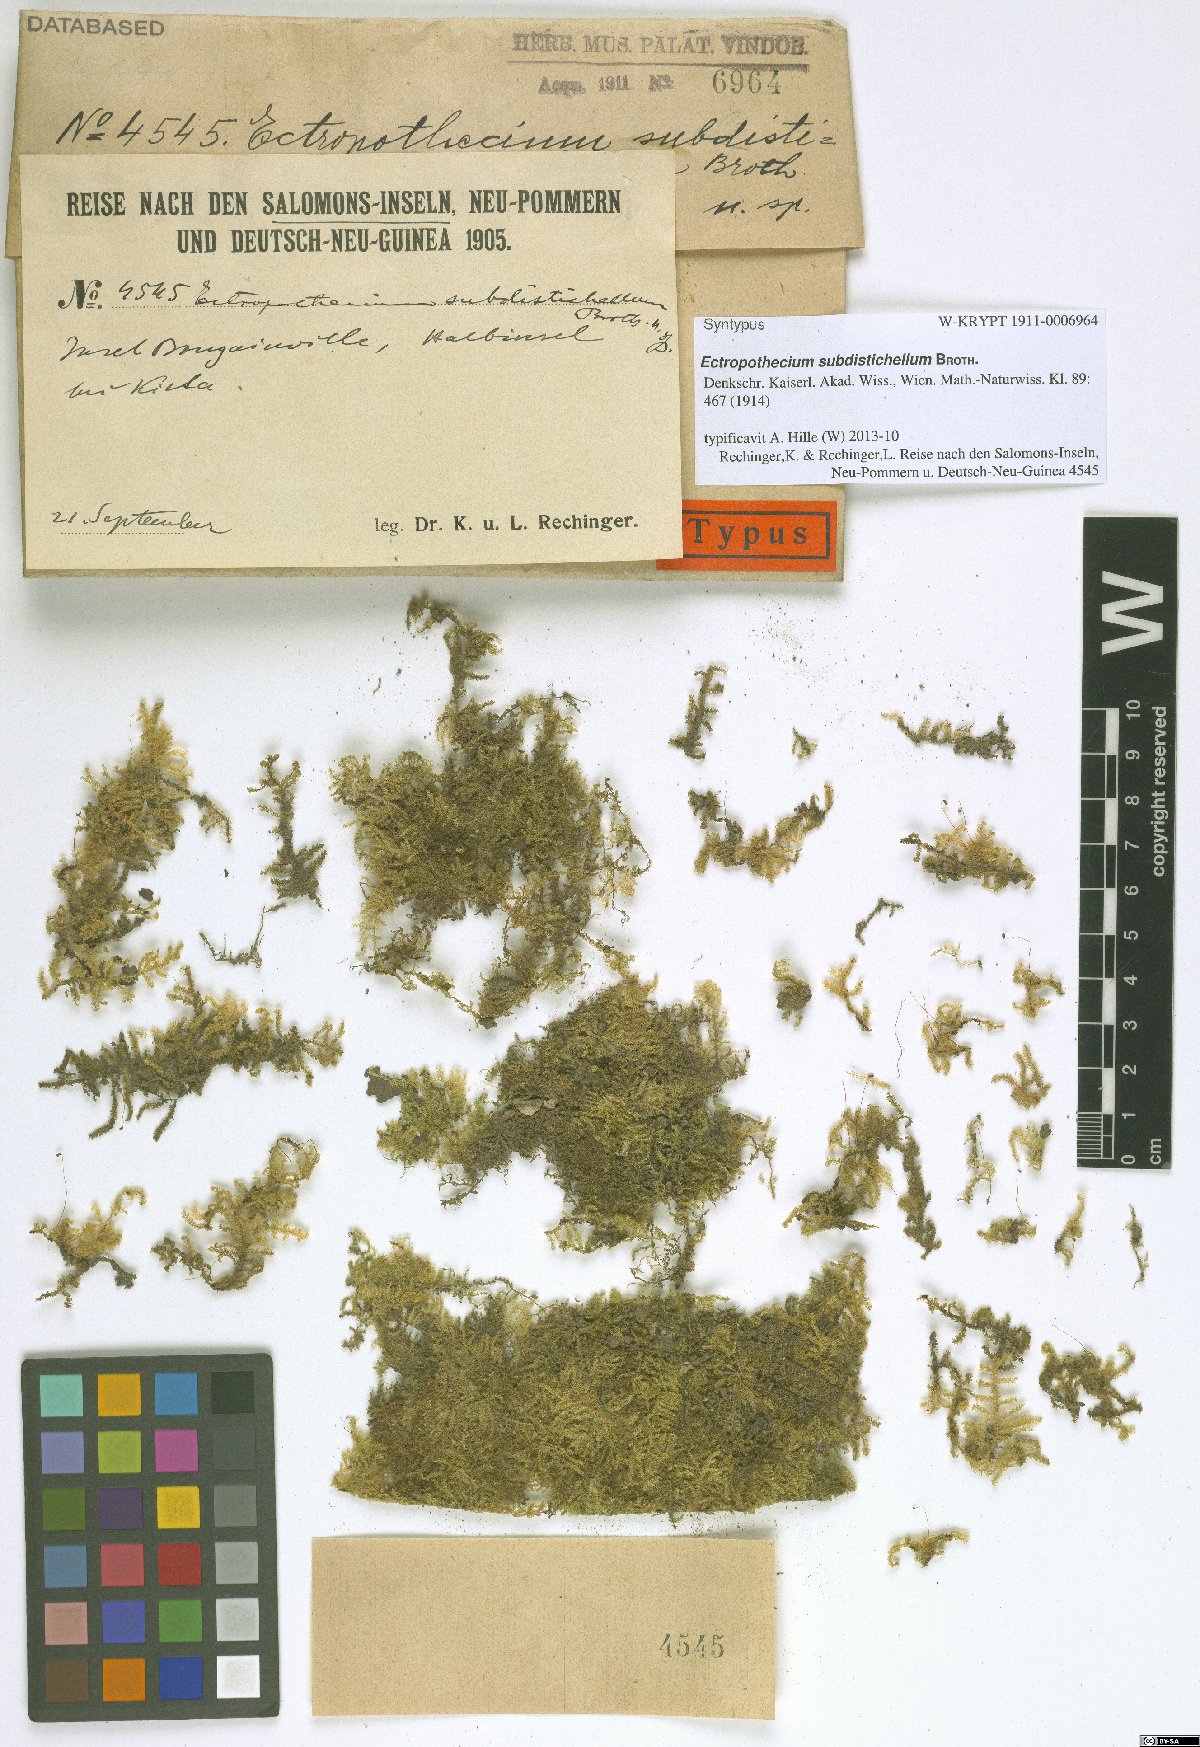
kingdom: Plantae
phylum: Bryophyta
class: Bryopsida
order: Hypnales
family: Hypnaceae
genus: Ectropothecium
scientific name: Ectropothecium subdistichellum
